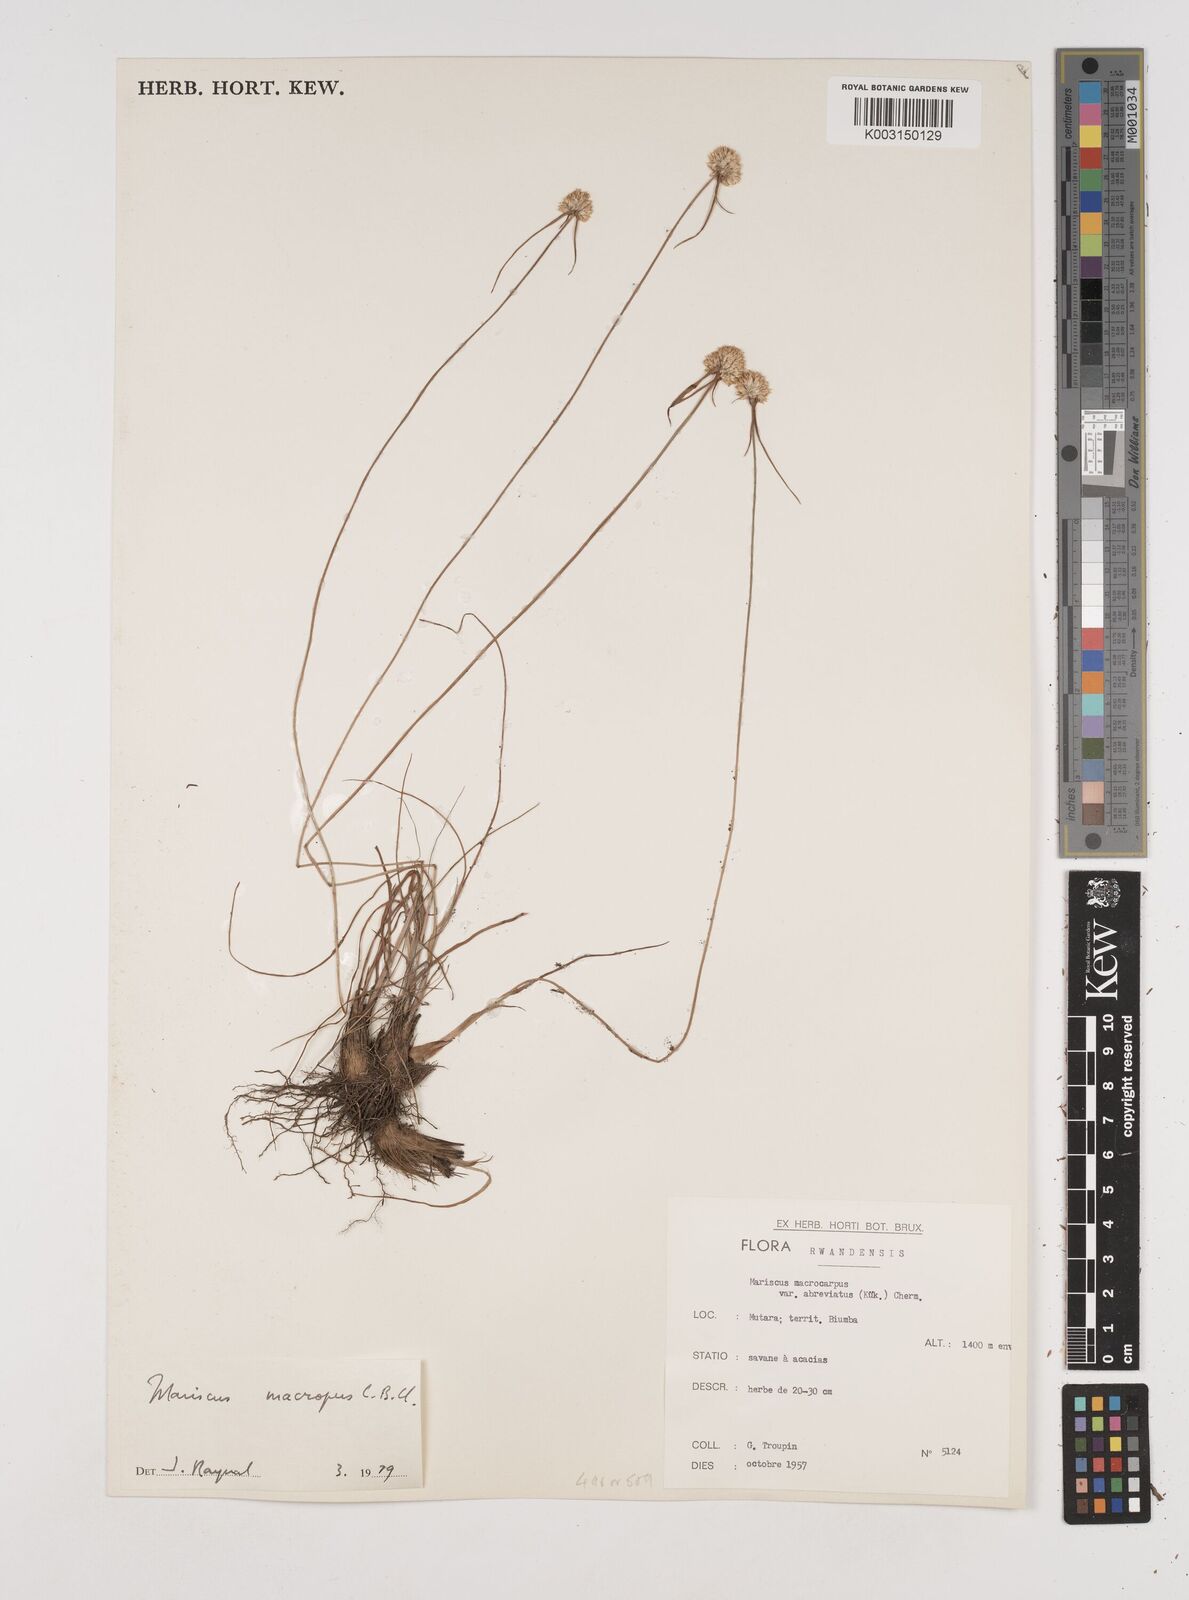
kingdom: Plantae
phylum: Tracheophyta
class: Liliopsida
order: Poales
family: Cyperaceae
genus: Cyperus
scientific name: Cyperus mollipes
